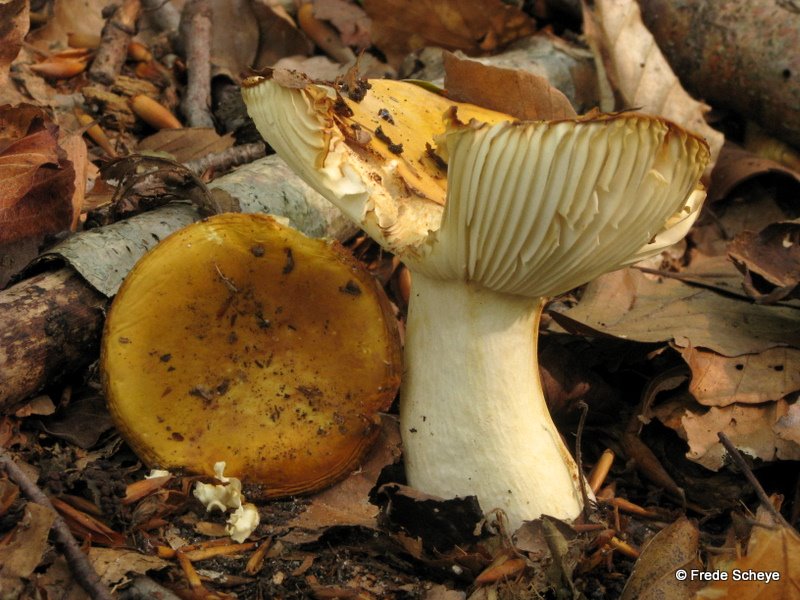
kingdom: Fungi
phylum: Basidiomycota
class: Agaricomycetes
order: Russulales
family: Russulaceae
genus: Russula
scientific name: Russula ochroleuca
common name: okkergul skørhat
